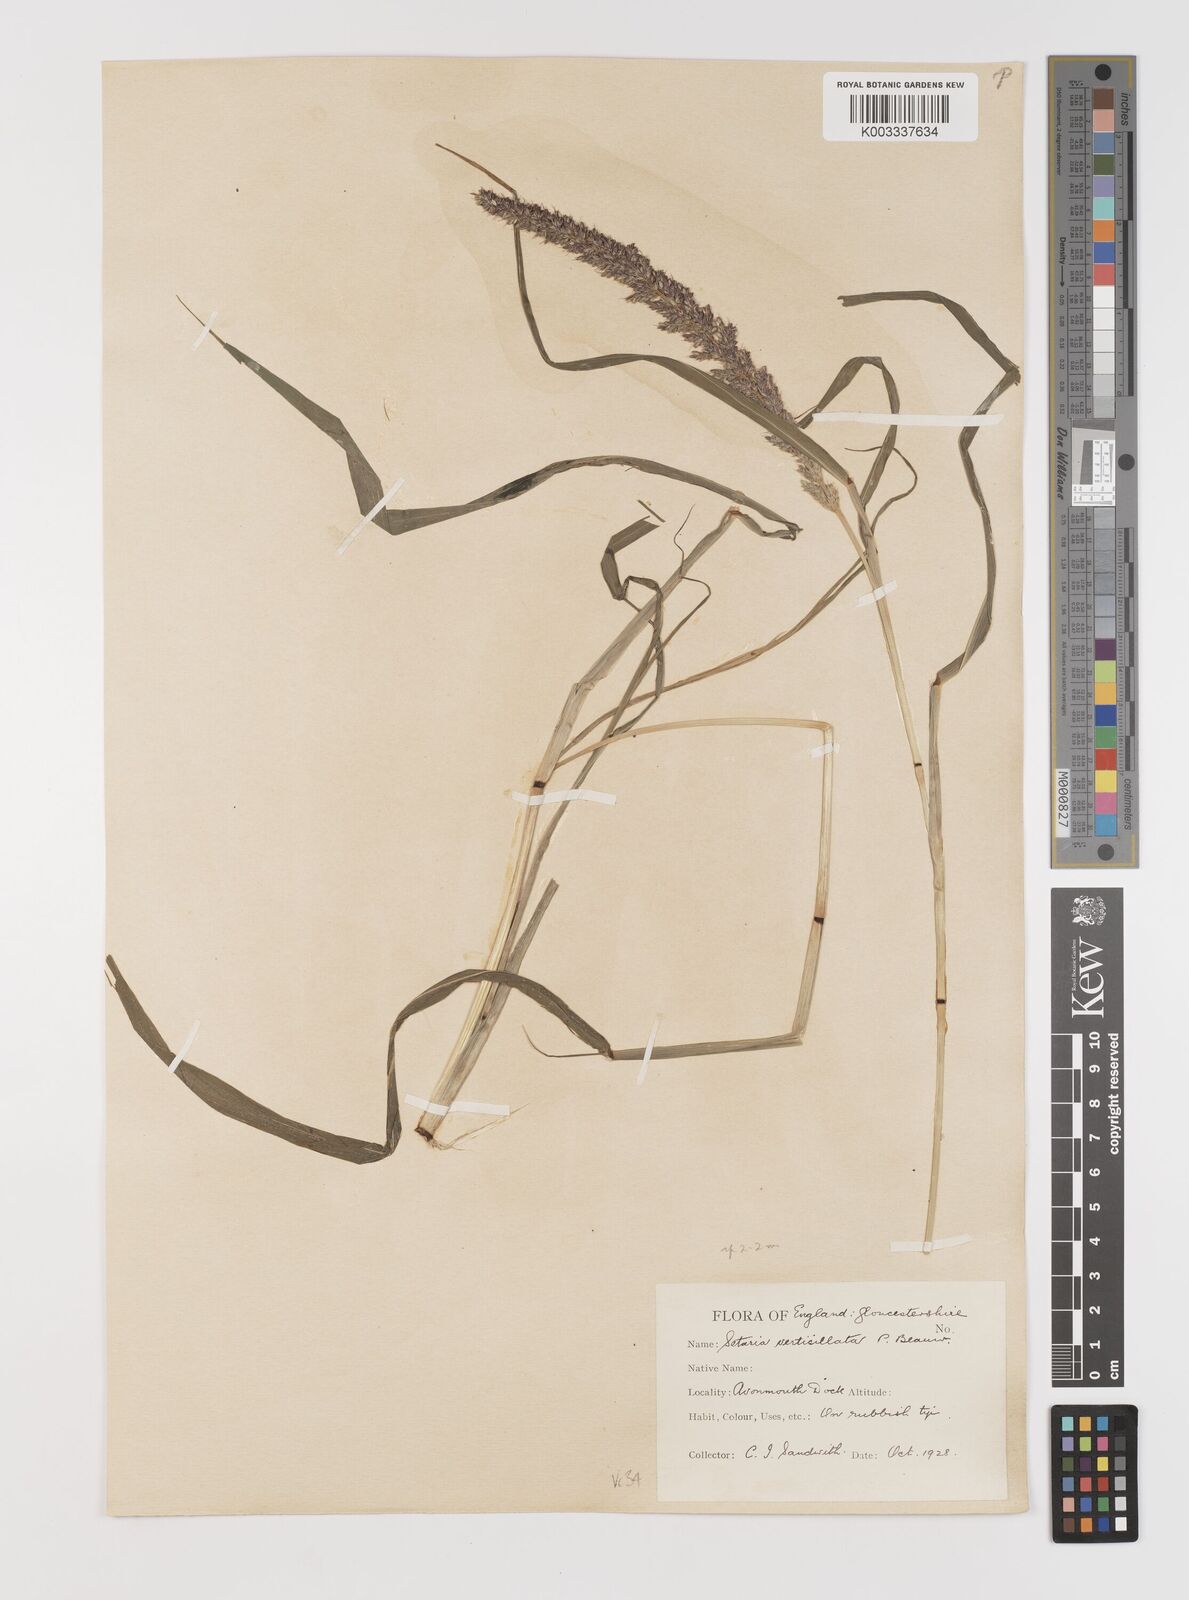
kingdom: Plantae
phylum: Tracheophyta
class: Liliopsida
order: Poales
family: Poaceae
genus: Setaria
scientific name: Setaria verticillata
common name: Hooked bristlegrass
